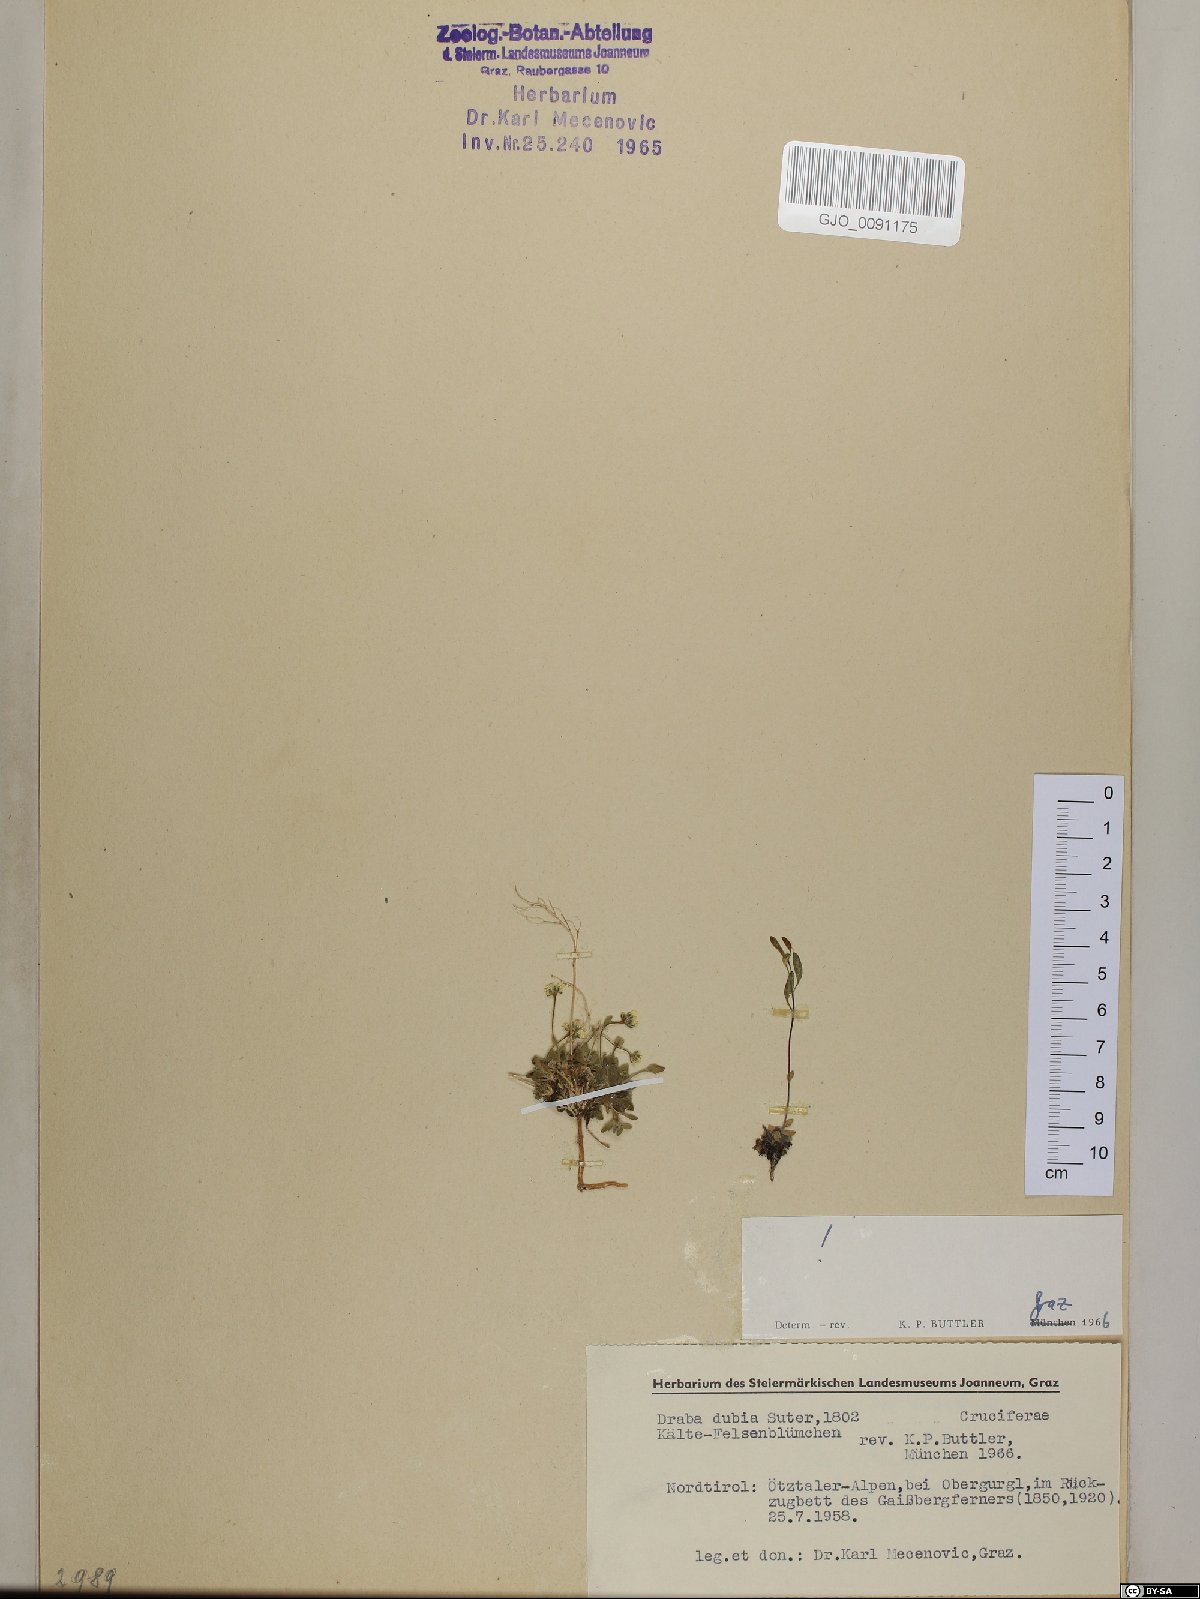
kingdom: Plantae
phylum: Tracheophyta
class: Magnoliopsida
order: Brassicales
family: Brassicaceae
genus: Draba
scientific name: Draba dubia
